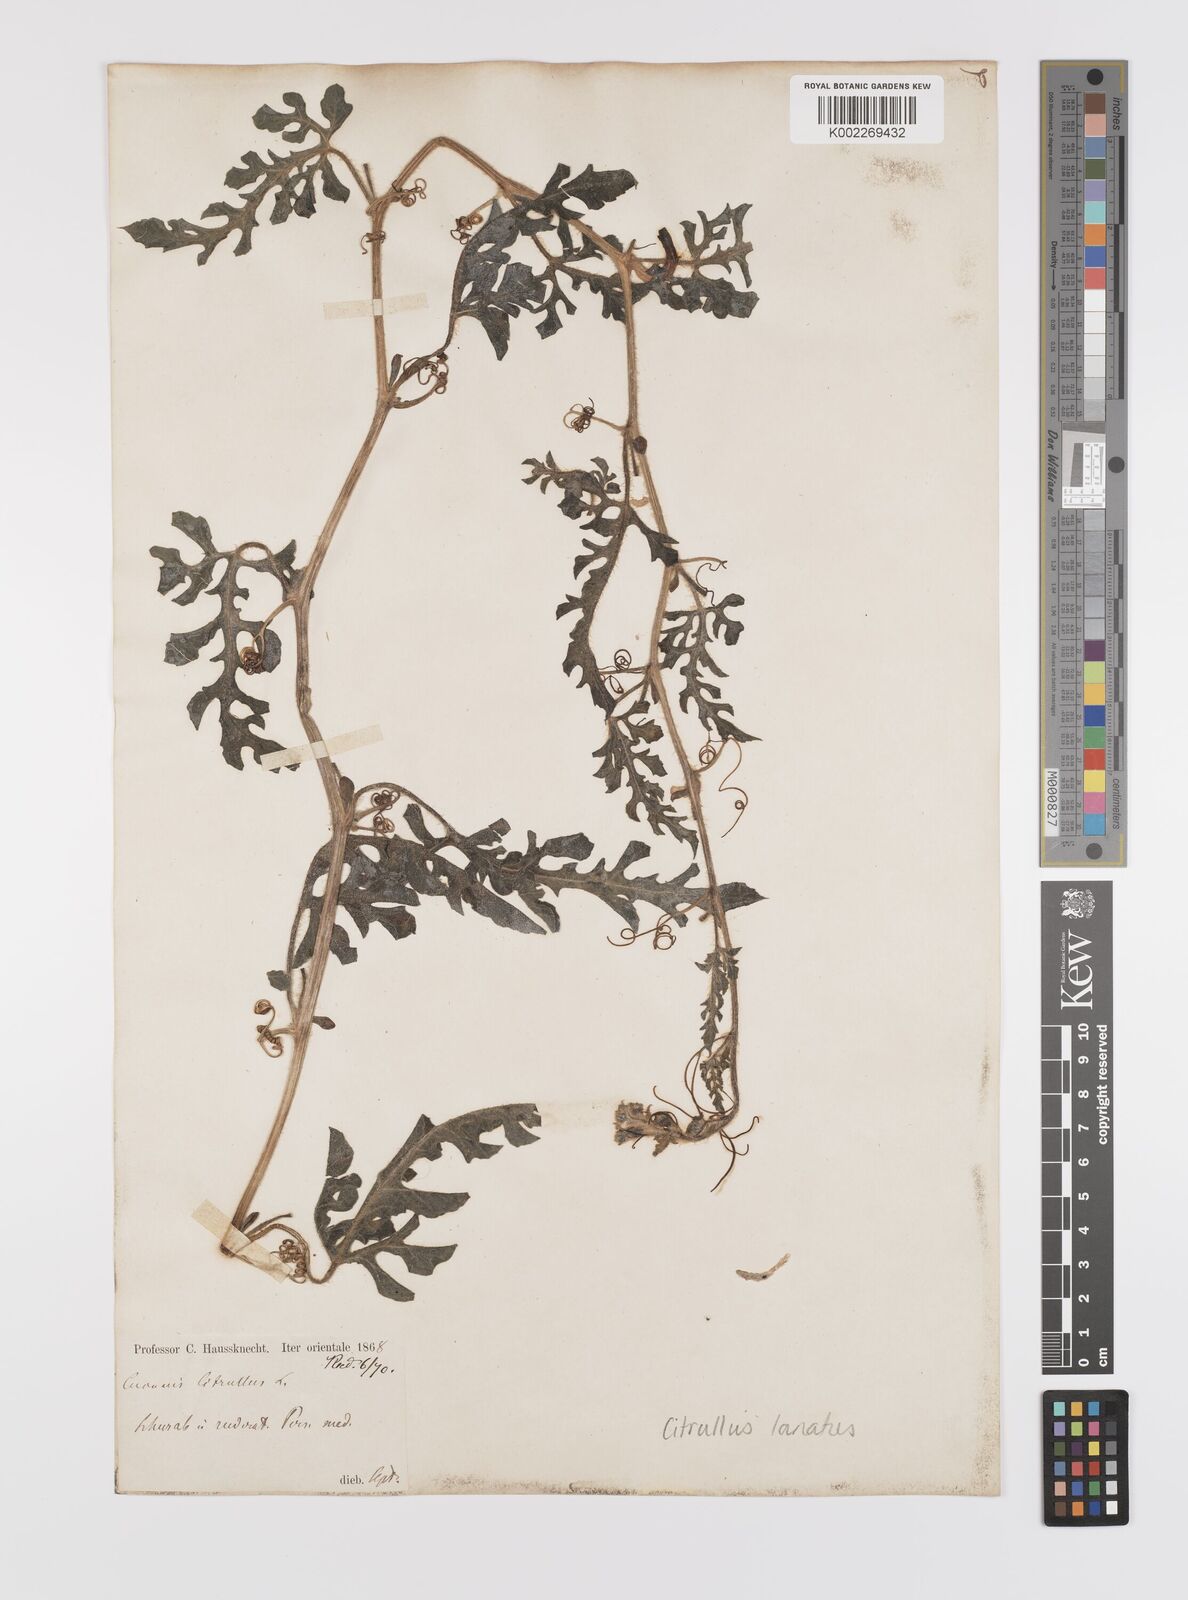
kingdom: Plantae
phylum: Tracheophyta
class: Magnoliopsida
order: Cucurbitales
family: Cucurbitaceae
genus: Citrullus
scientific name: Citrullus lanatus
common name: Watermelon
